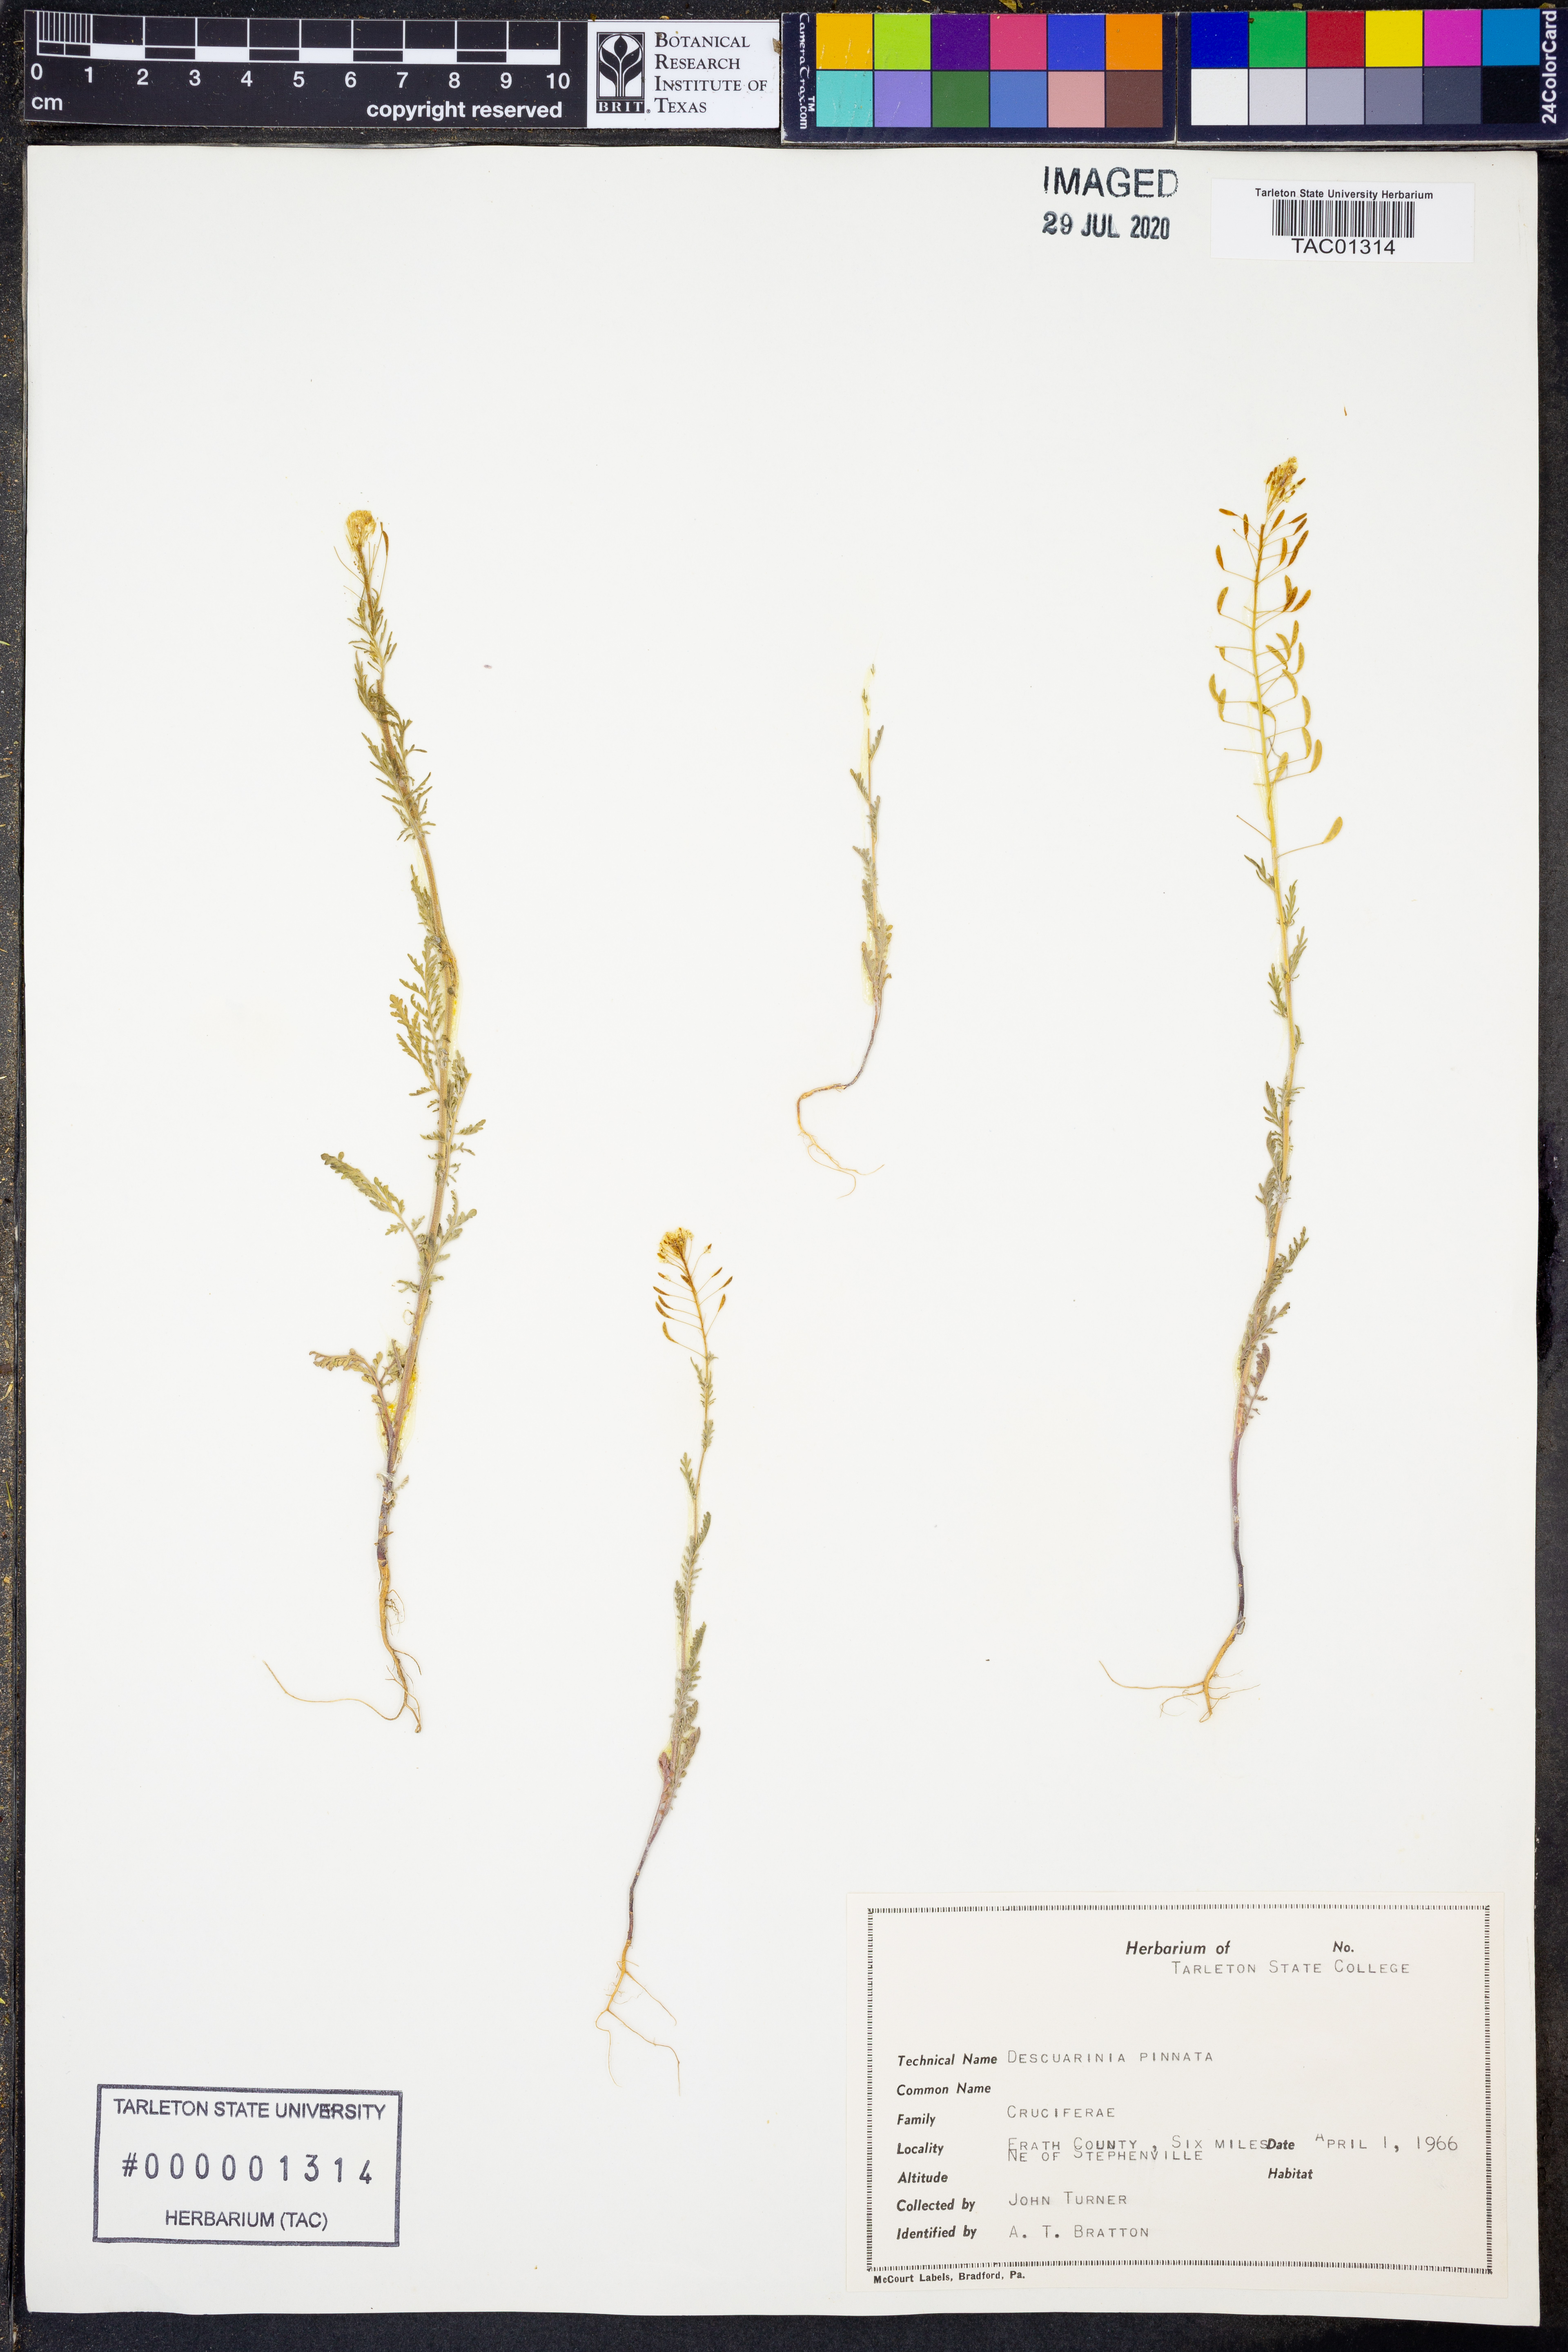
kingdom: Plantae
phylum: Tracheophyta
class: Magnoliopsida
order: Brassicales
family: Brassicaceae
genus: Descurainia
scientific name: Descurainia pinnata
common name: Western tansy mustard
